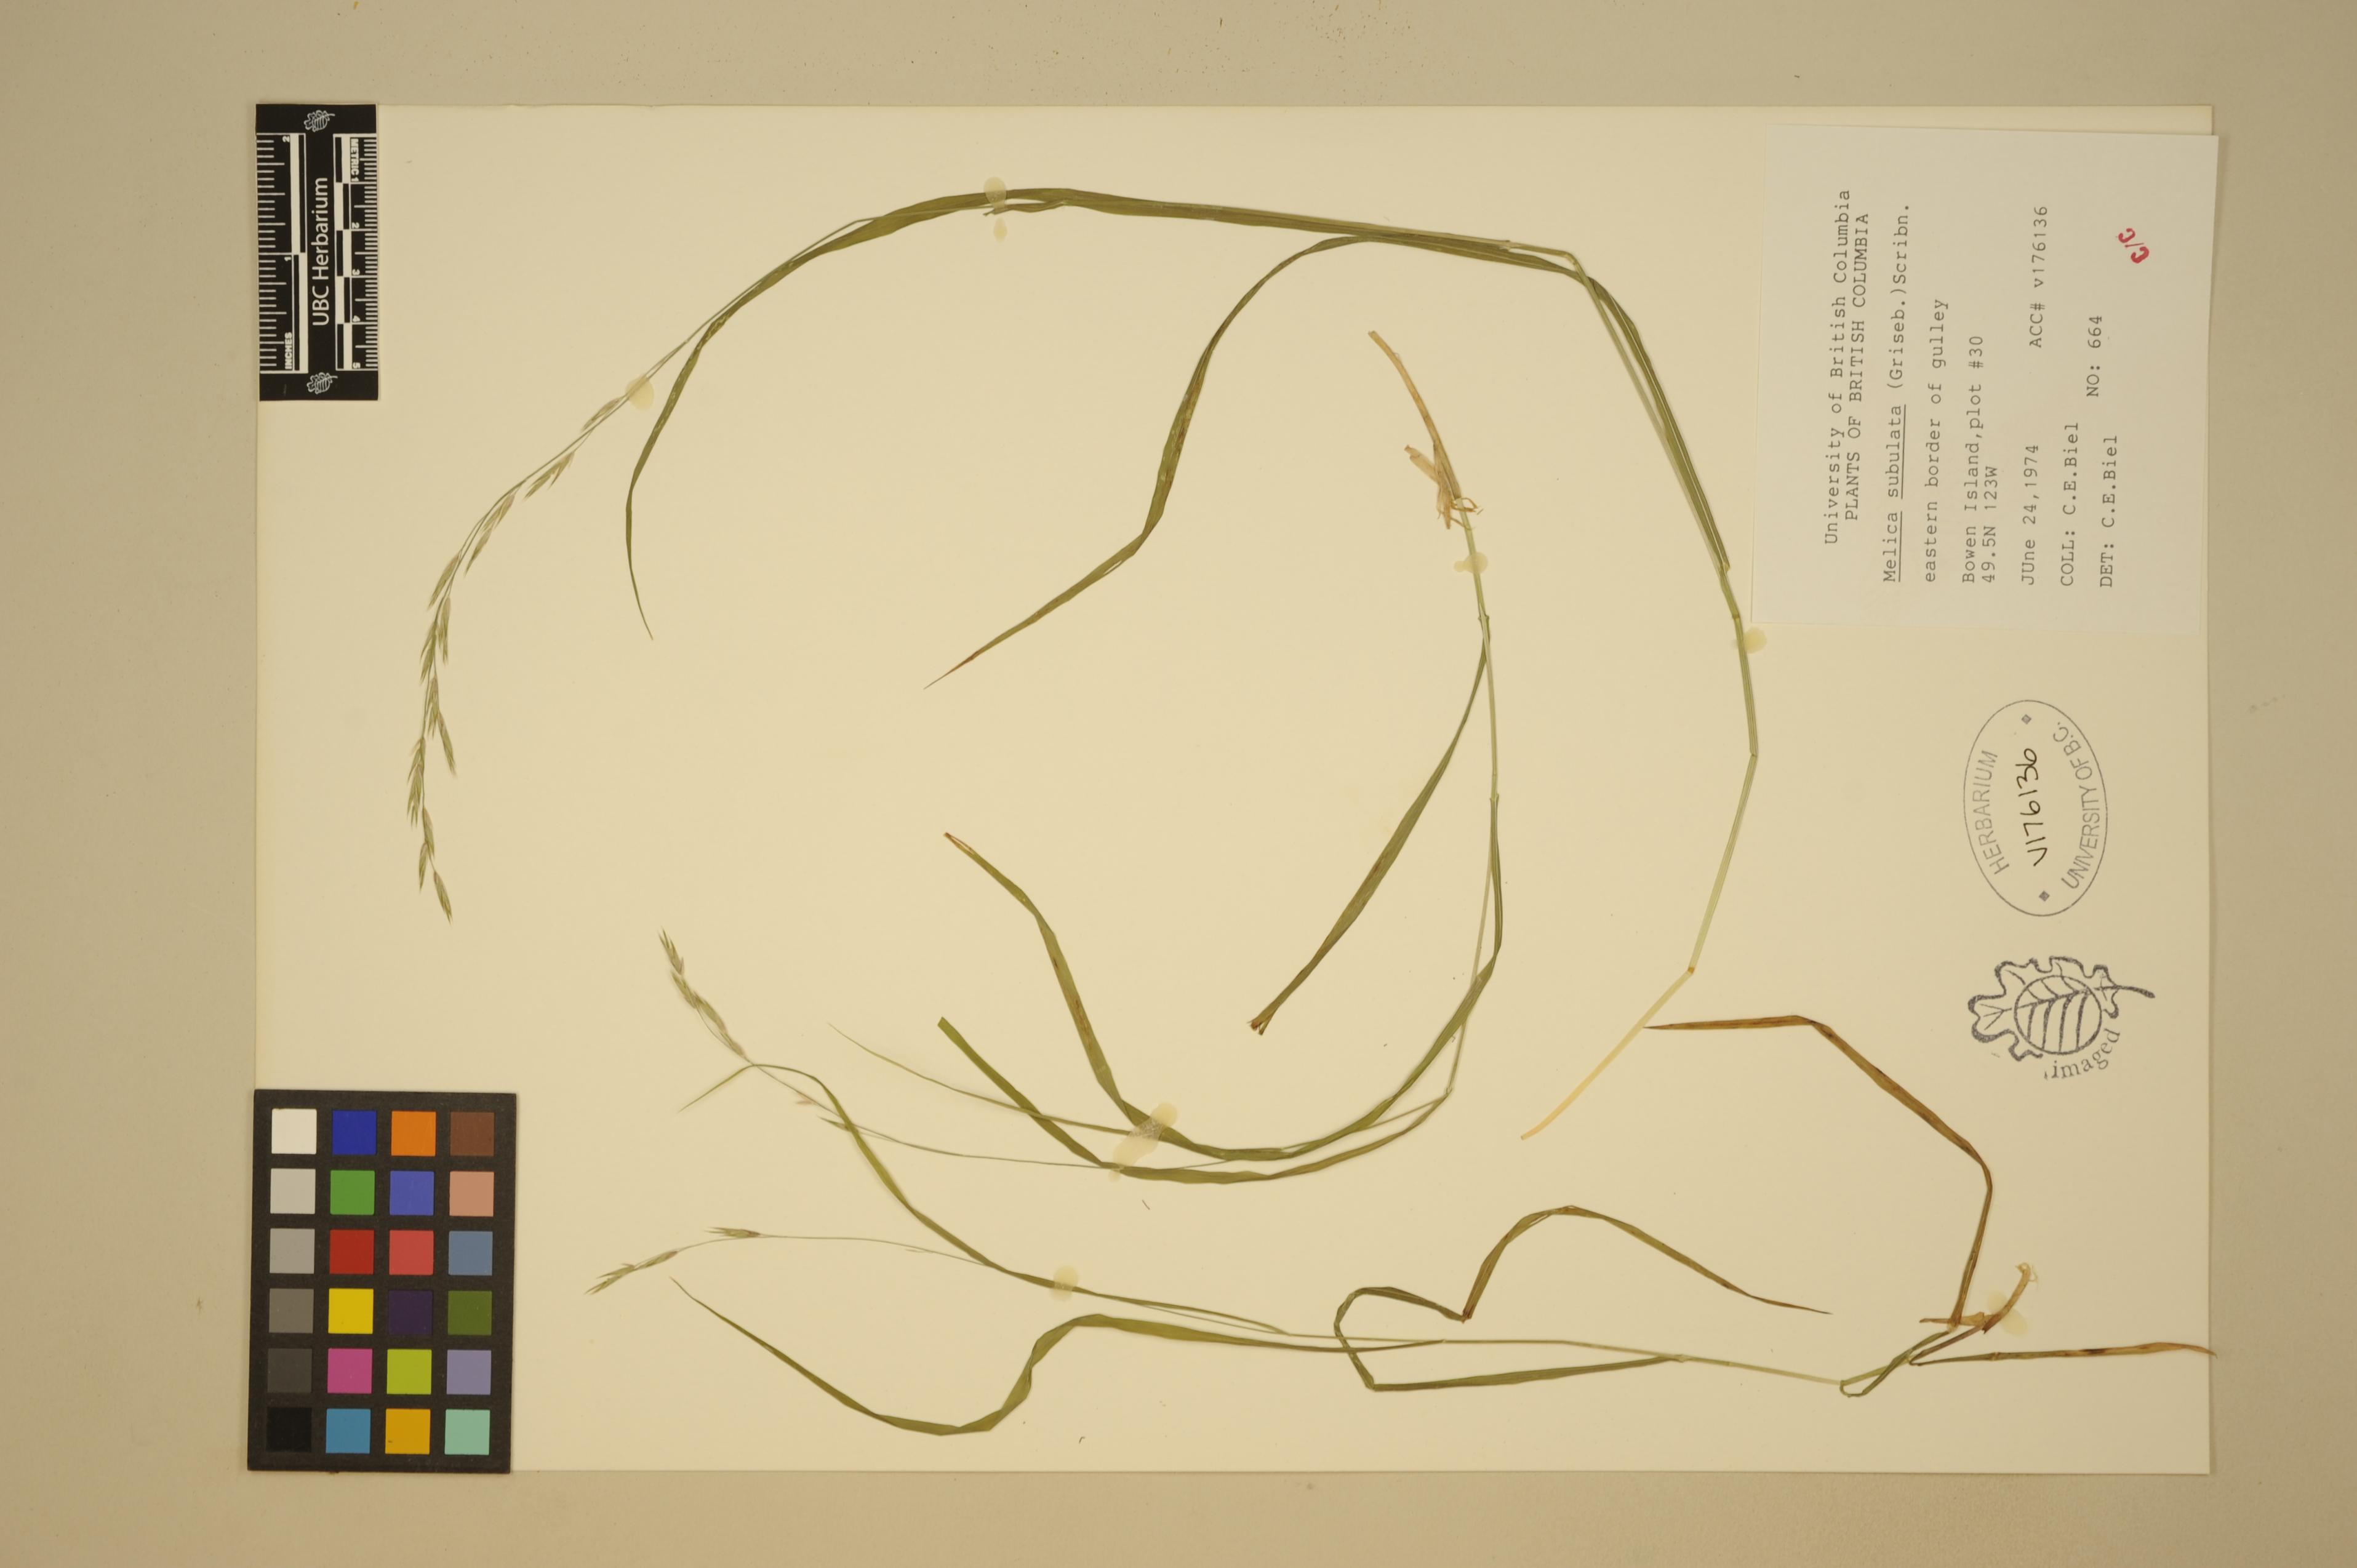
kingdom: Plantae
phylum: Tracheophyta
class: Liliopsida
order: Poales
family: Poaceae
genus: Melica
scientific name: Melica subulata
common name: Tapered oniongrass
